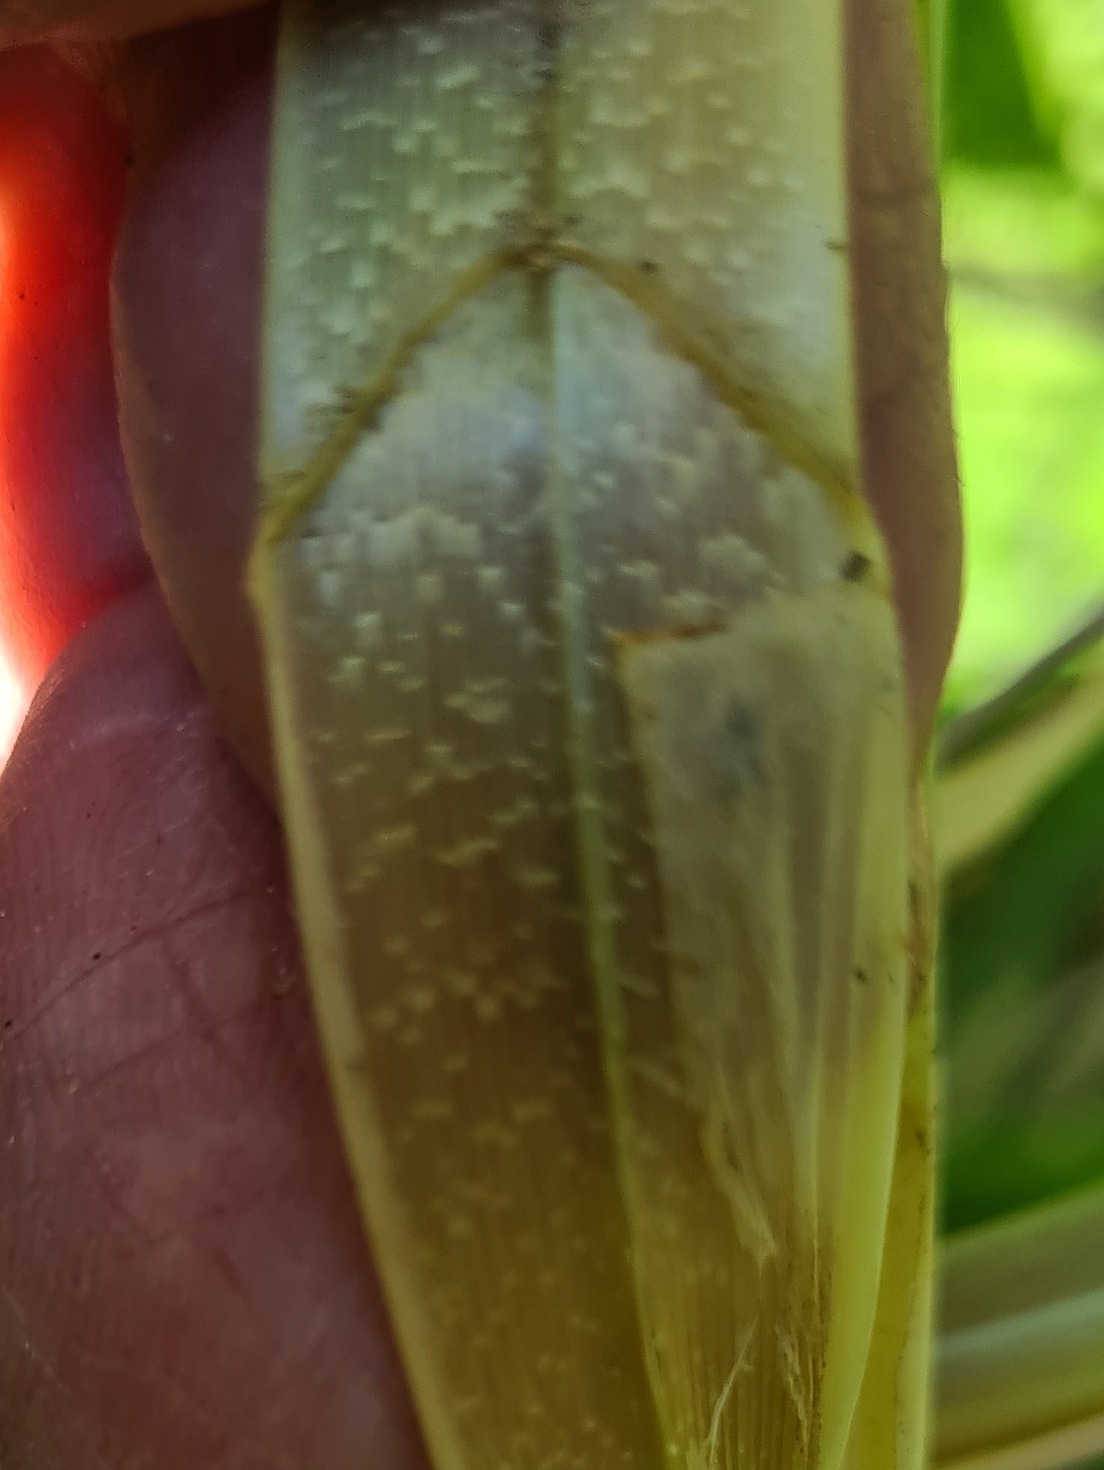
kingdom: Plantae
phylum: Tracheophyta
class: Liliopsida
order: Poales
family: Cyperaceae
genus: Carex
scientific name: Carex riparia
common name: Tykakset star
